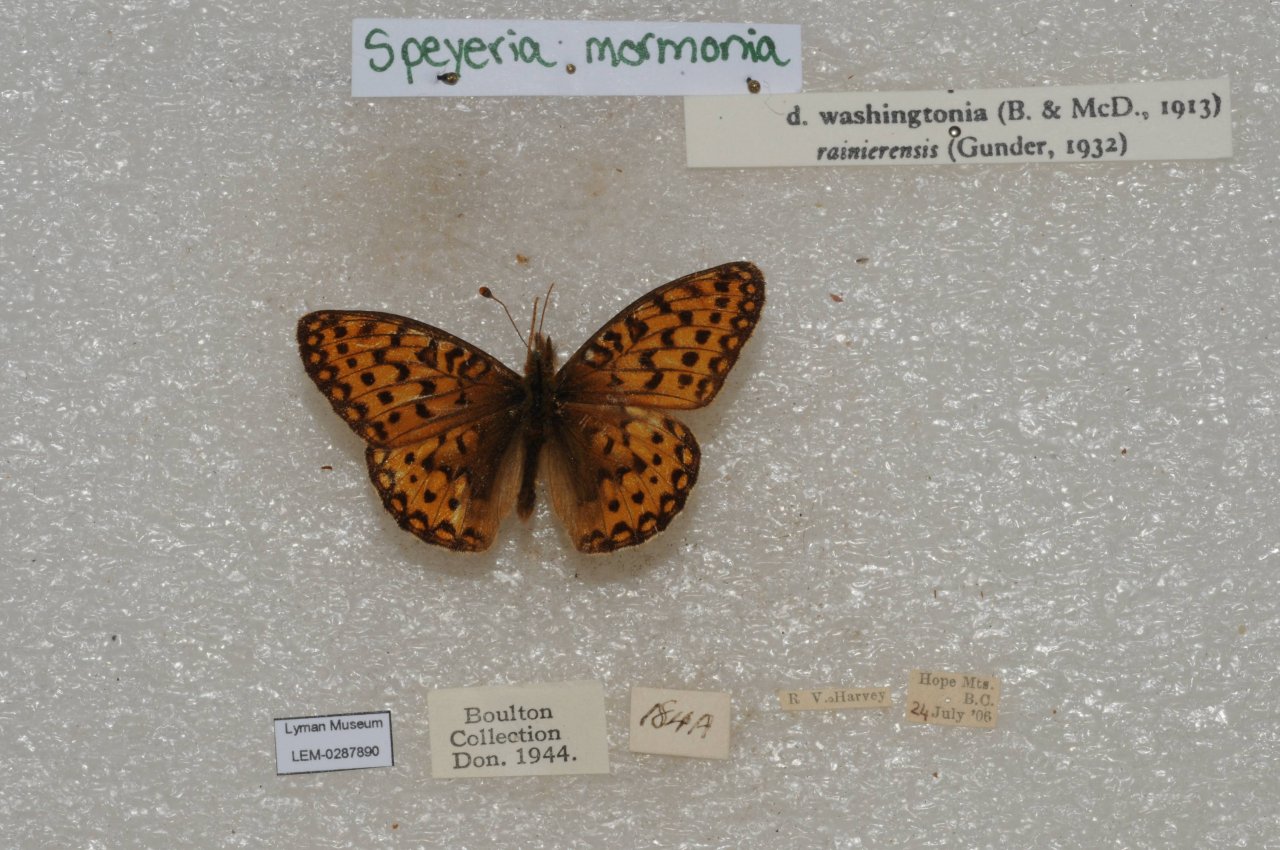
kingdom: Animalia
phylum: Arthropoda
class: Insecta
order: Lepidoptera
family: Nymphalidae
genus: Speyeria
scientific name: Speyeria mormonia
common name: Mormon Fritillary
